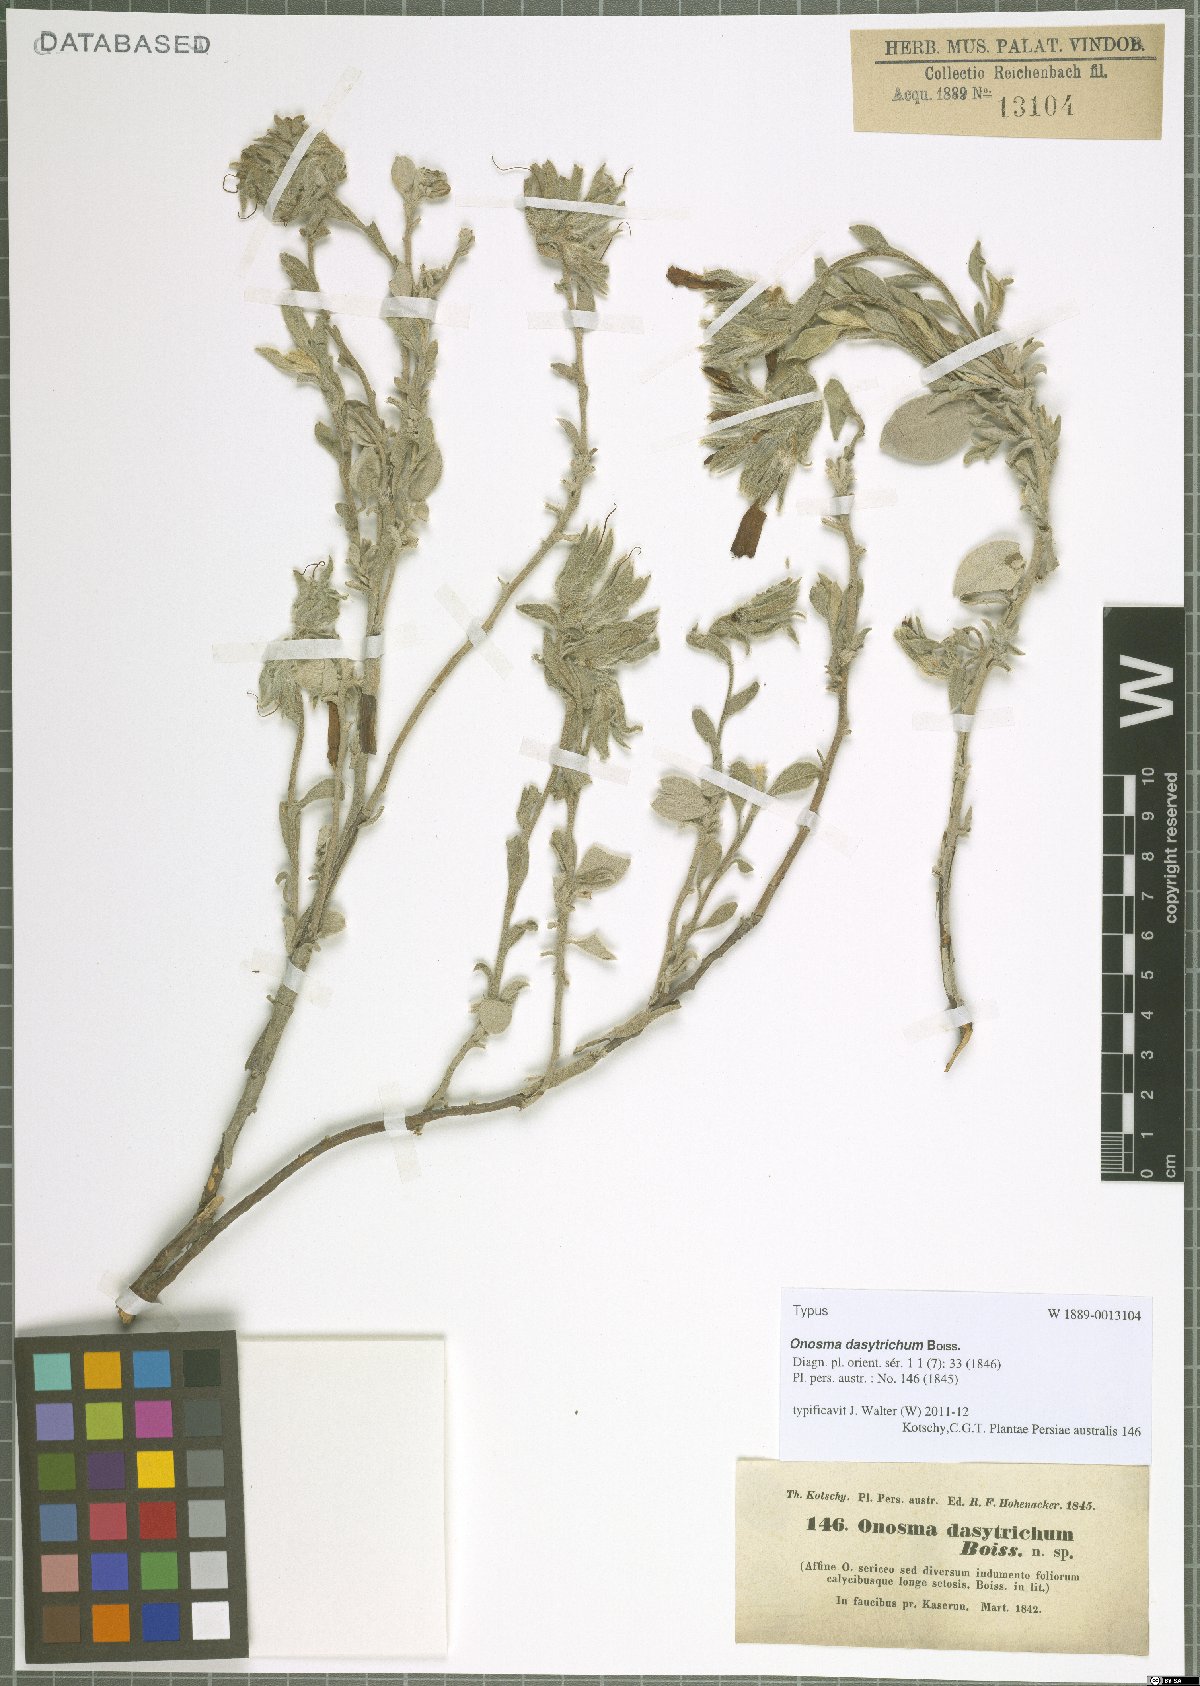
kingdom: Plantae
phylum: Tracheophyta
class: Magnoliopsida
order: Boraginales
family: Boraginaceae
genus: Onosma
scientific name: Onosma dasytricha
